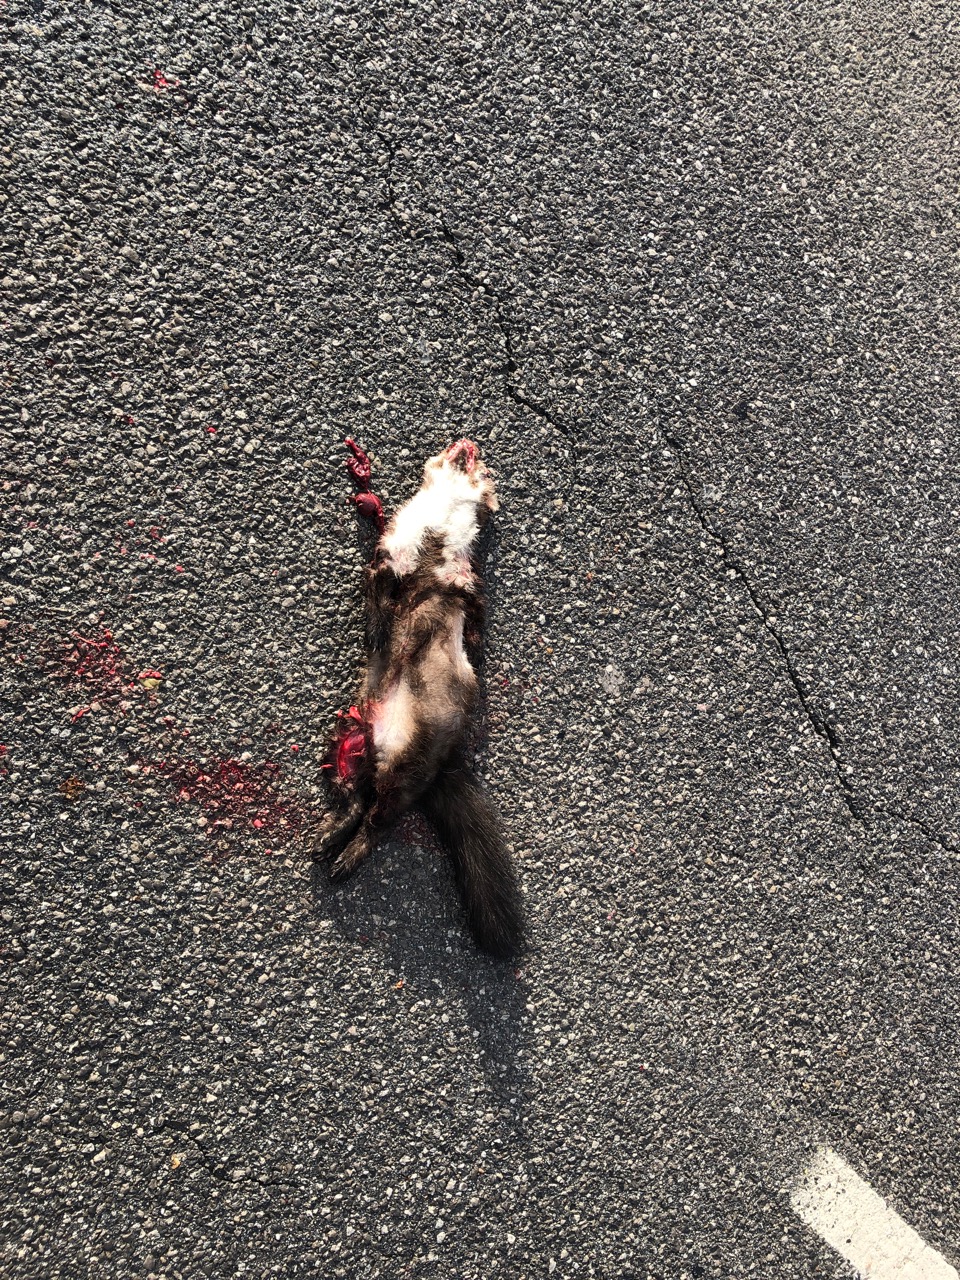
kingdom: Animalia
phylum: Chordata
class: Mammalia
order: Carnivora
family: Mustelidae
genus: Martes
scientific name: Martes foina
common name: Beech marten
